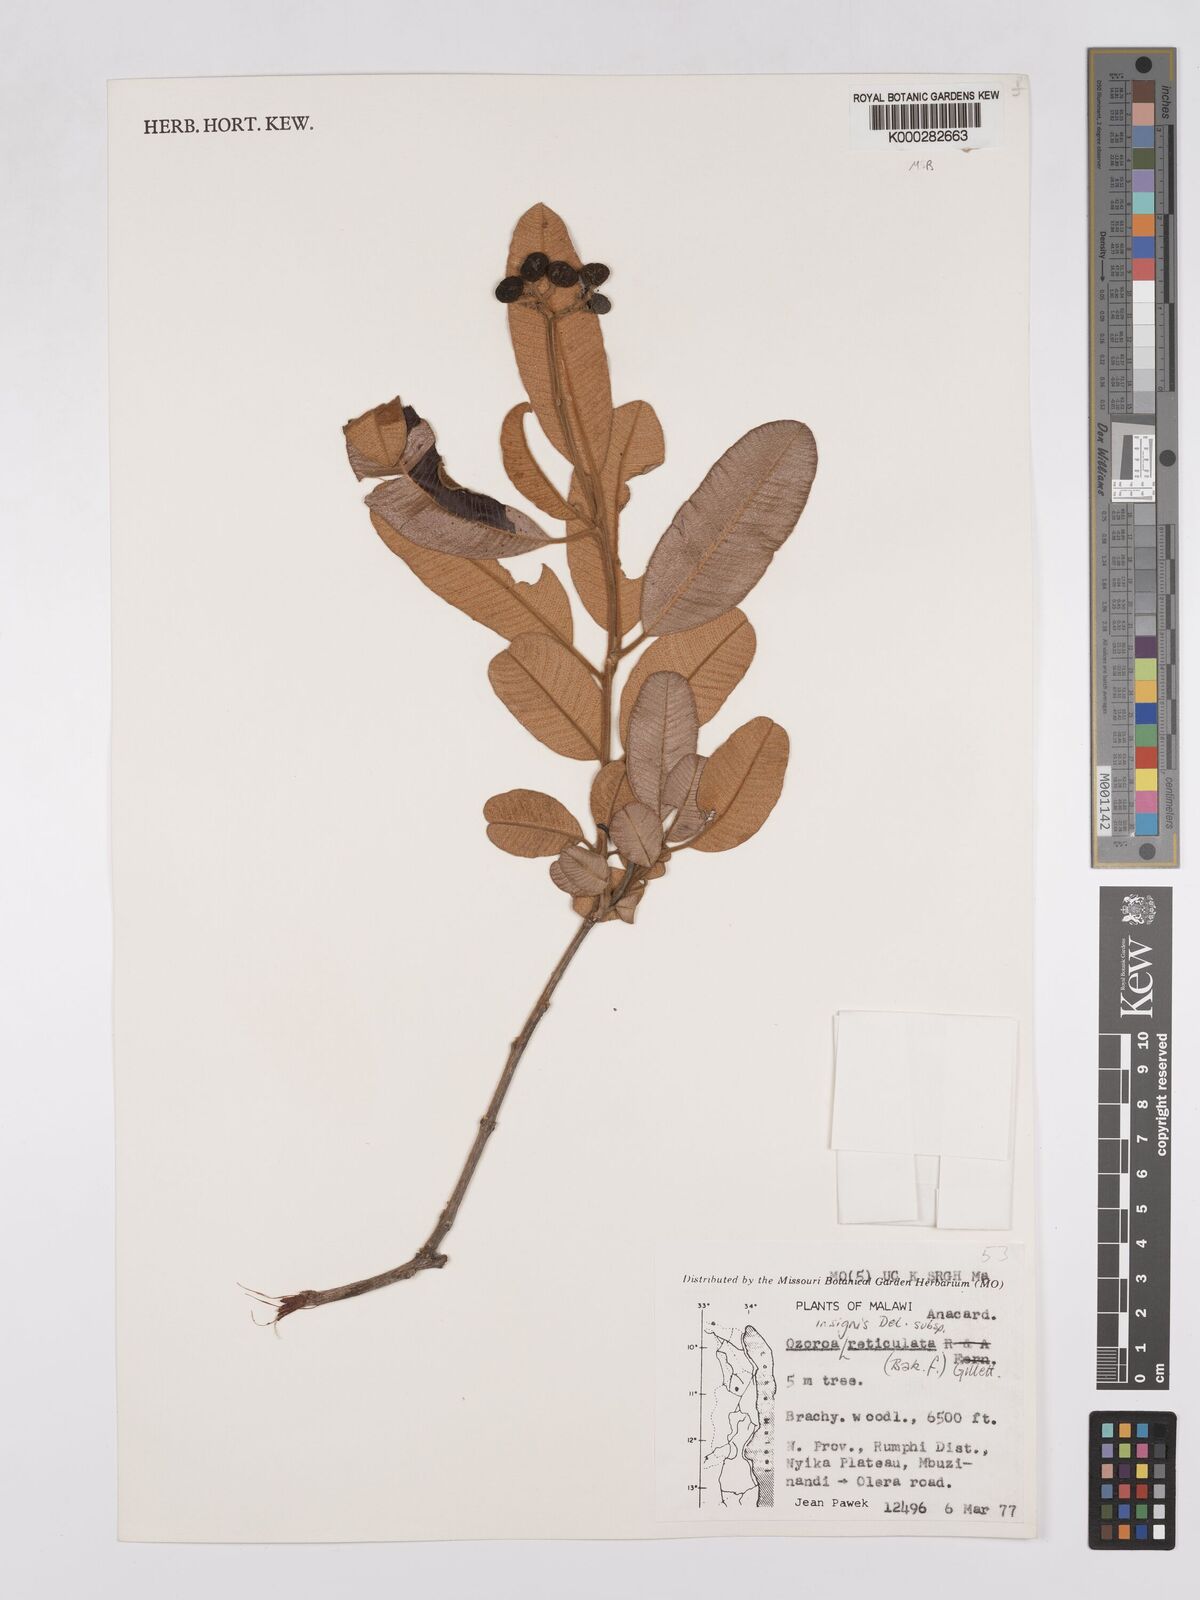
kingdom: Plantae
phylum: Tracheophyta
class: Magnoliopsida
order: Sapindales
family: Anacardiaceae
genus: Ozoroa
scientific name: Ozoroa insignis
